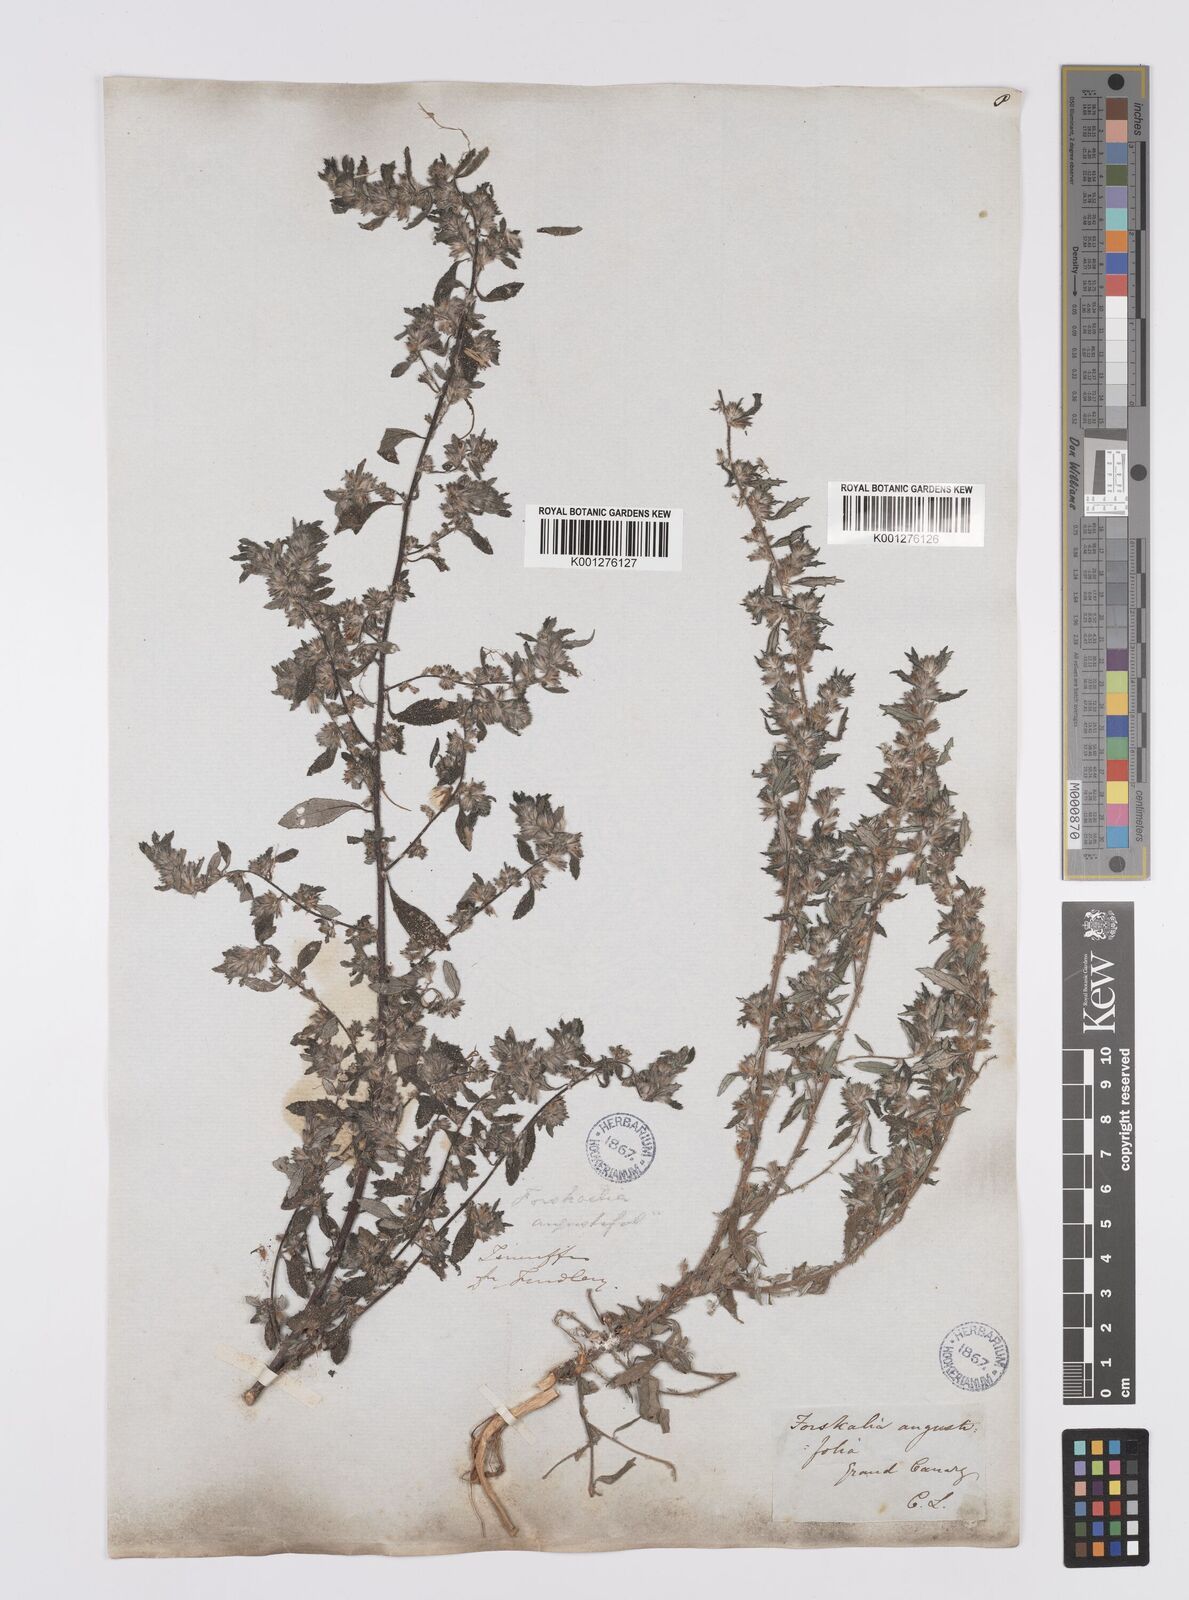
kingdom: Plantae
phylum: Tracheophyta
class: Magnoliopsida
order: Rosales
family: Urticaceae
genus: Forsskaolea
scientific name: Forsskaolea angustifolia
